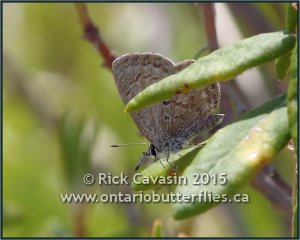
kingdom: Animalia
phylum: Arthropoda
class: Insecta
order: Lepidoptera
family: Lycaenidae
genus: Celastrina
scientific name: Celastrina lucia
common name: Northern Spring Azure
